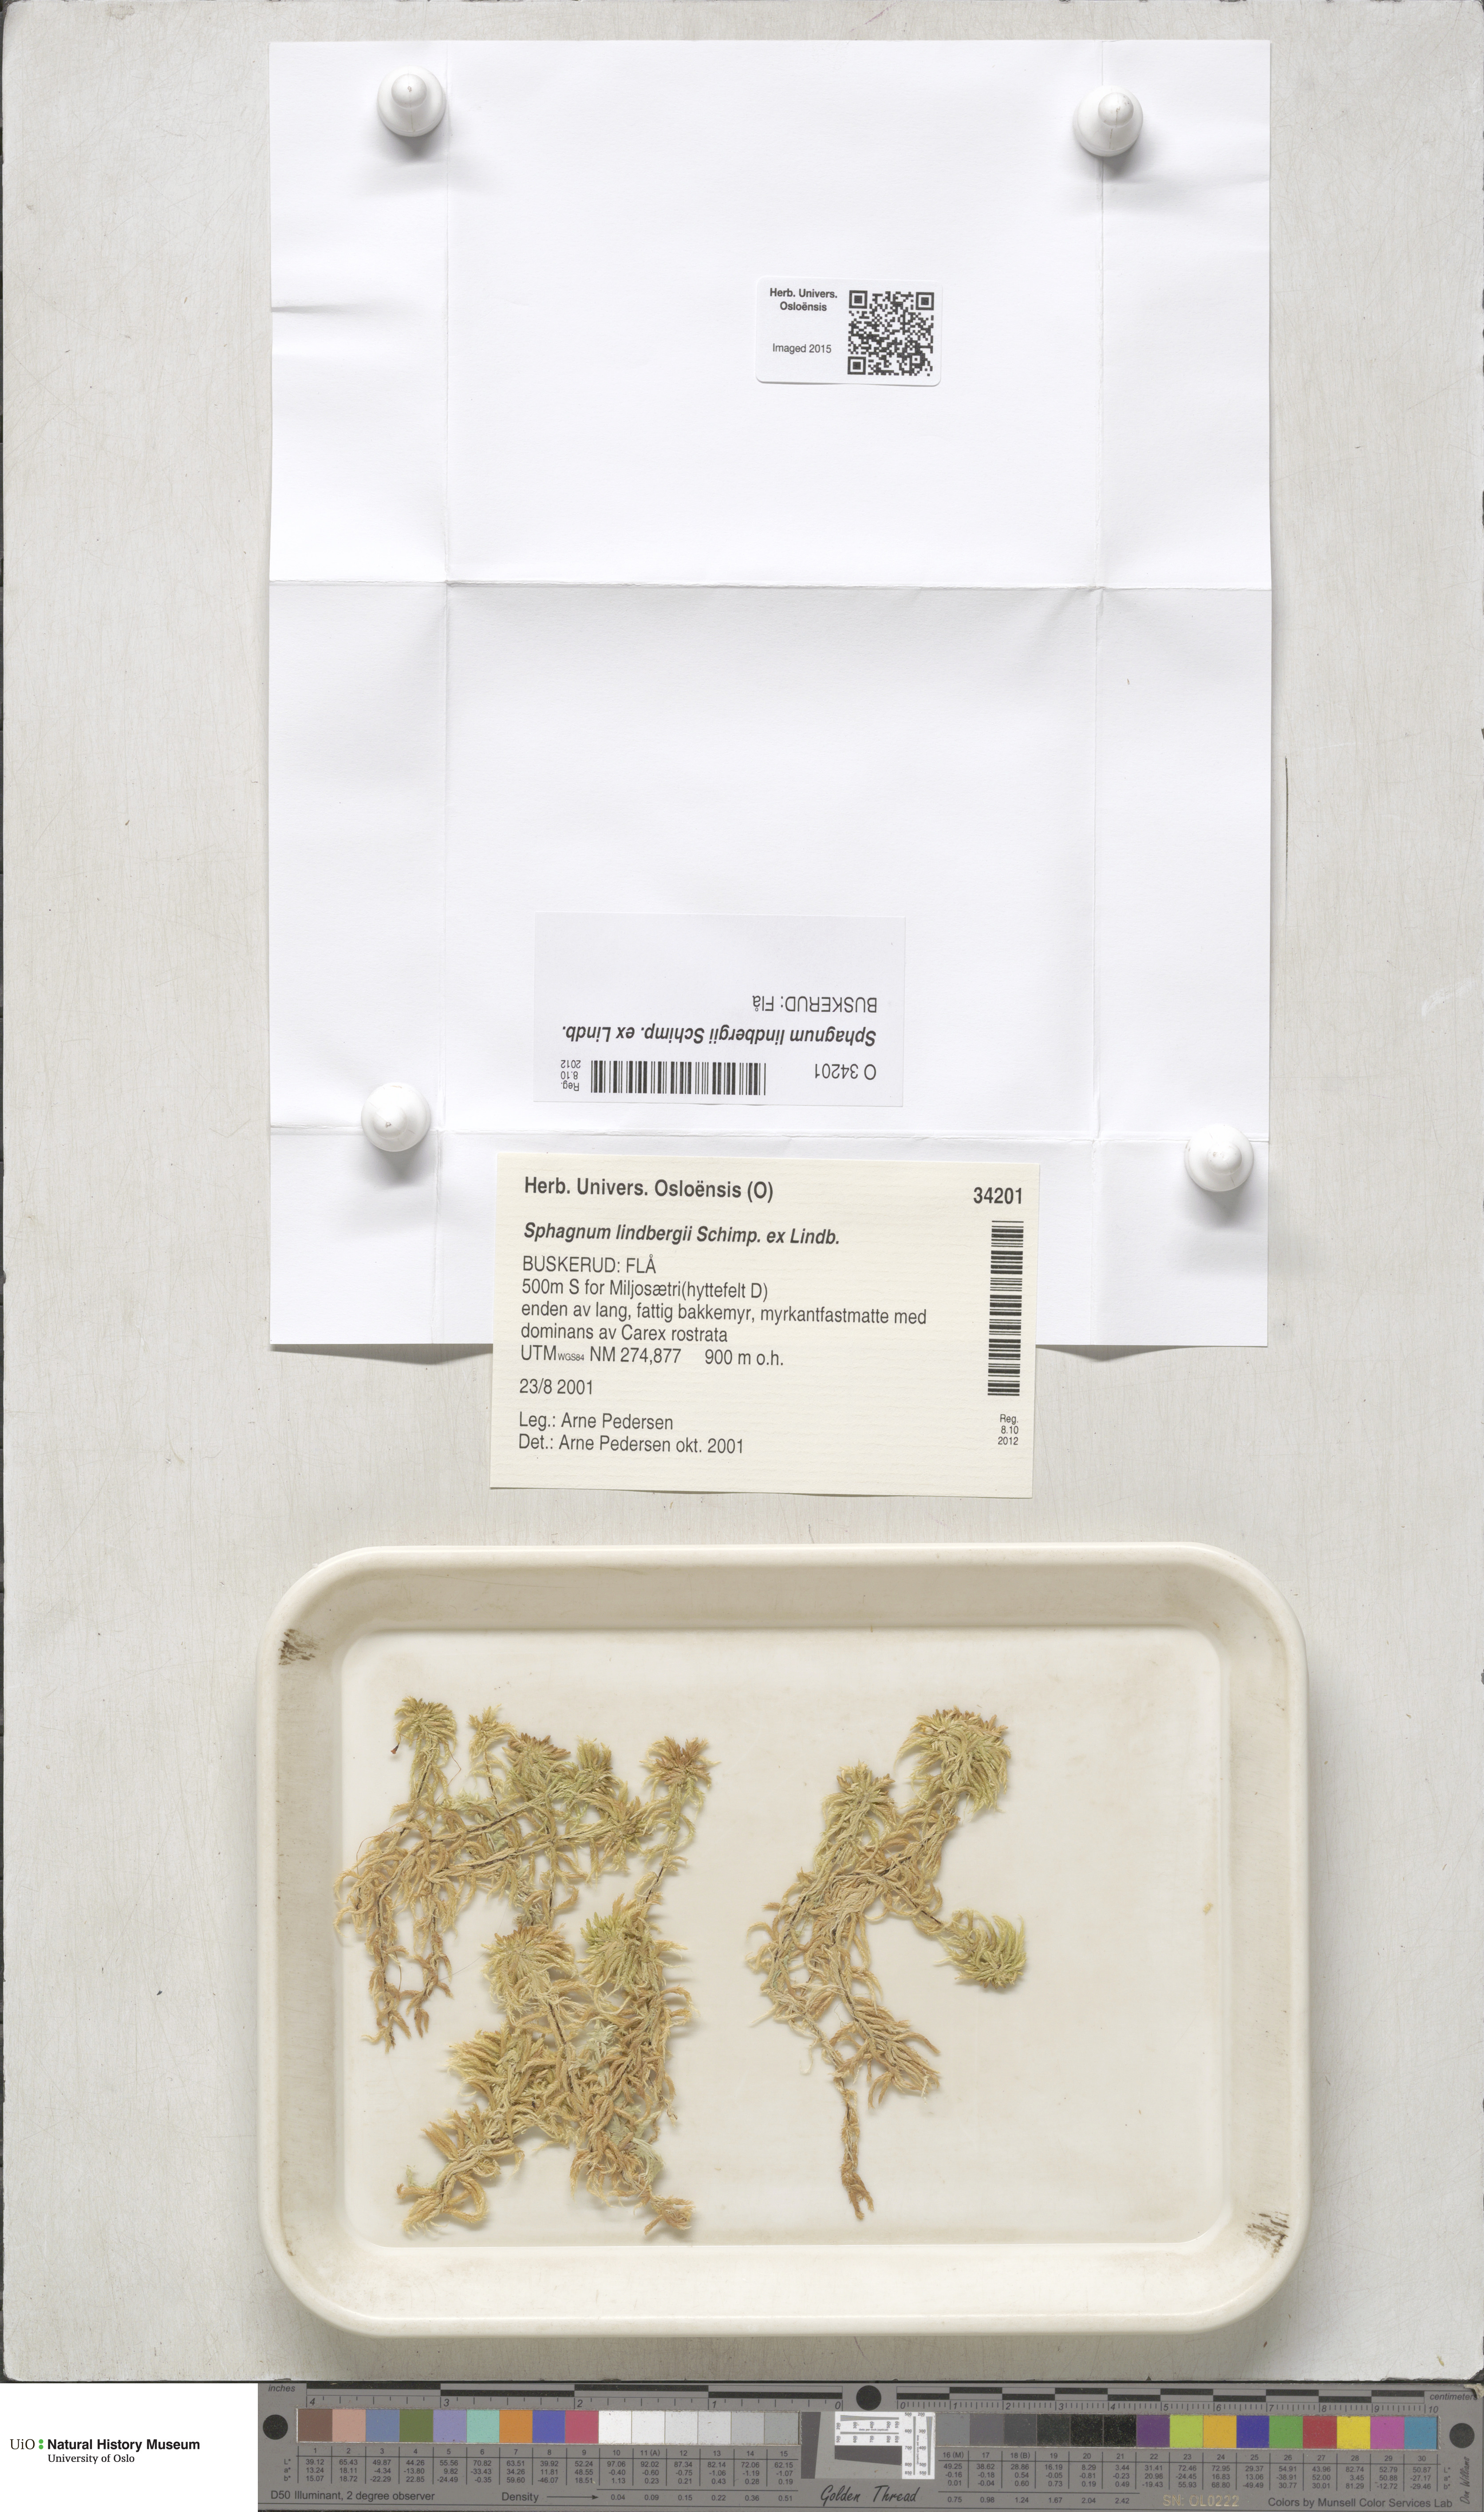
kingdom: Plantae
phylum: Bryophyta
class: Sphagnopsida
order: Sphagnales
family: Sphagnaceae
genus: Sphagnum
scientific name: Sphagnum lindbergii
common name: Lindberg's peat moss
